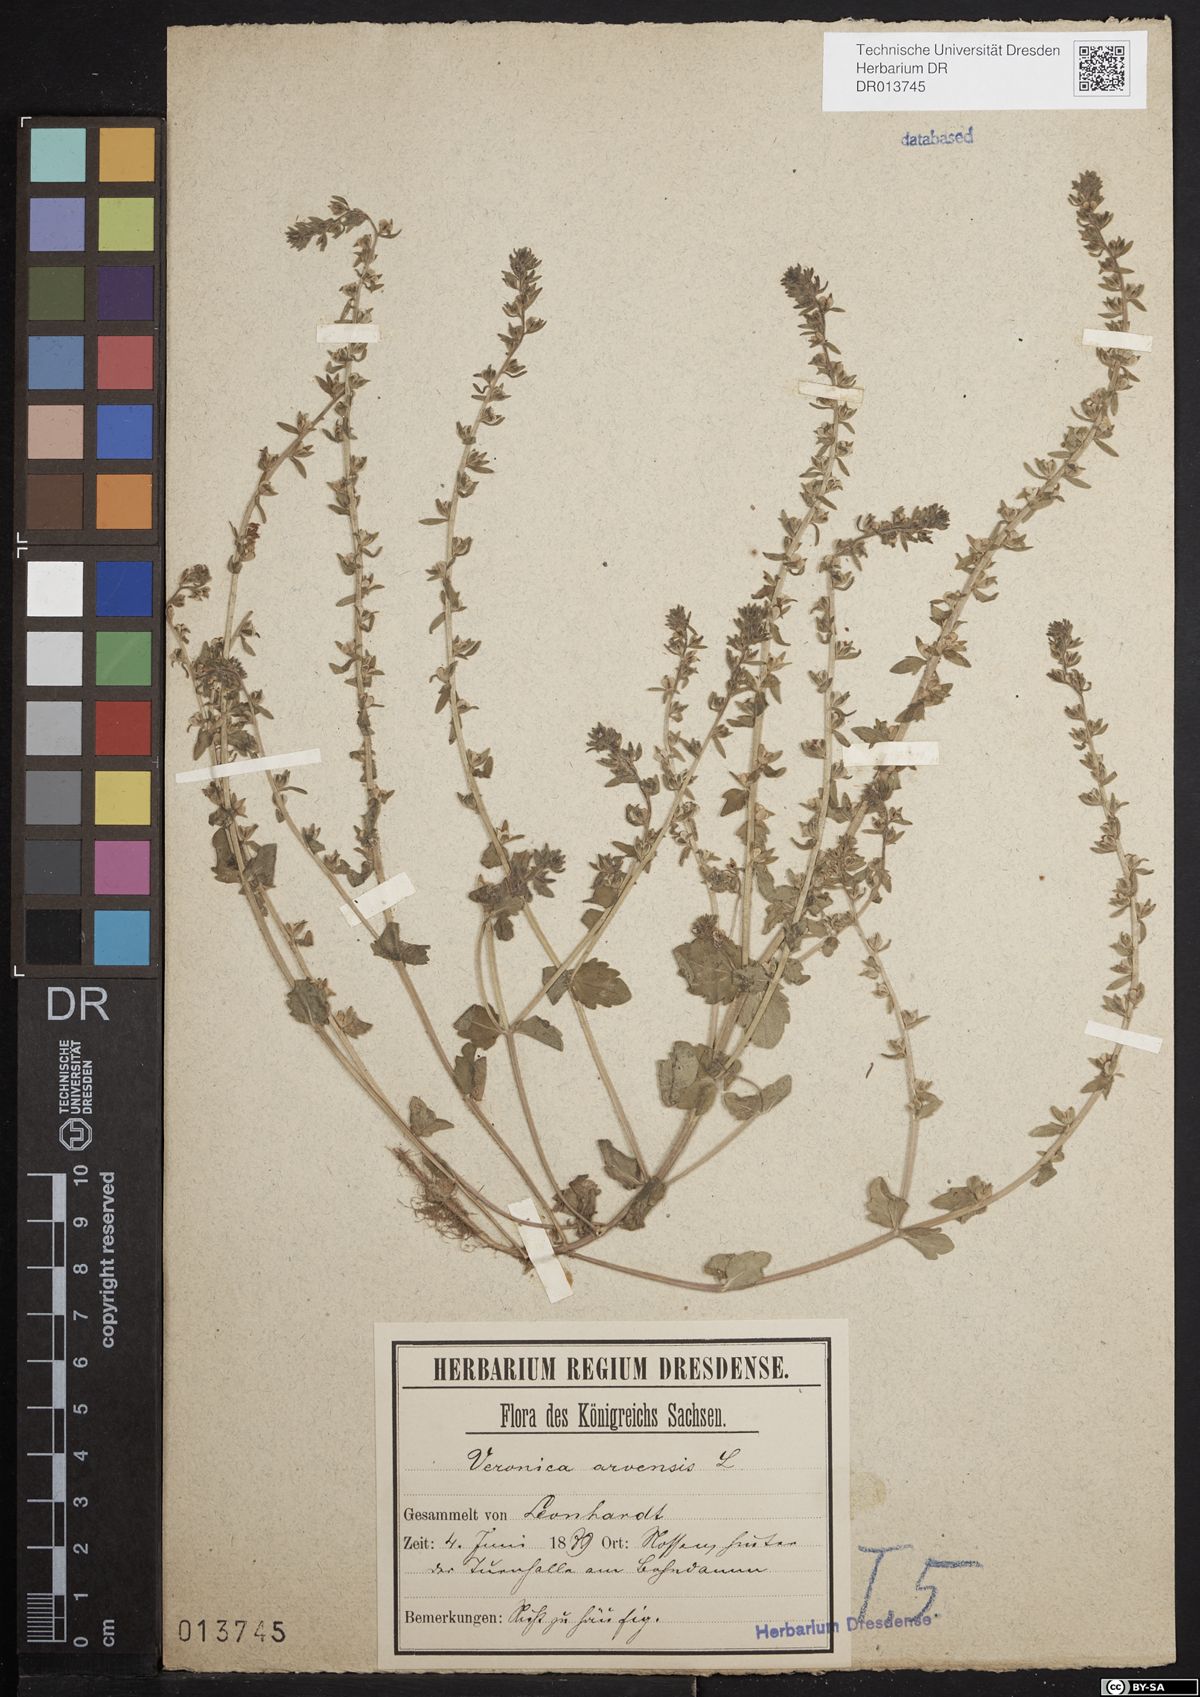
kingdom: Plantae
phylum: Tracheophyta
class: Magnoliopsida
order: Lamiales
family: Plantaginaceae
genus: Veronica
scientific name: Veronica arvensis
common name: Corn speedwell
